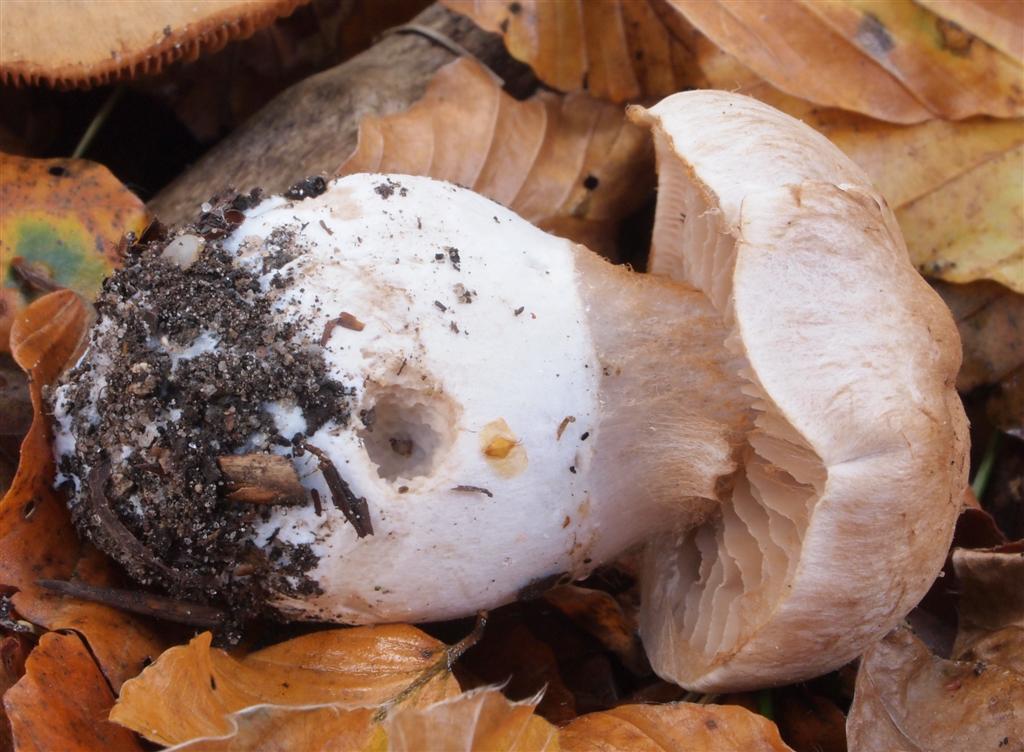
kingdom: Fungi
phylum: Basidiomycota
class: Agaricomycetes
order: Agaricales
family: Cortinariaceae
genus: Cortinarius
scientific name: Cortinarius turgidus
